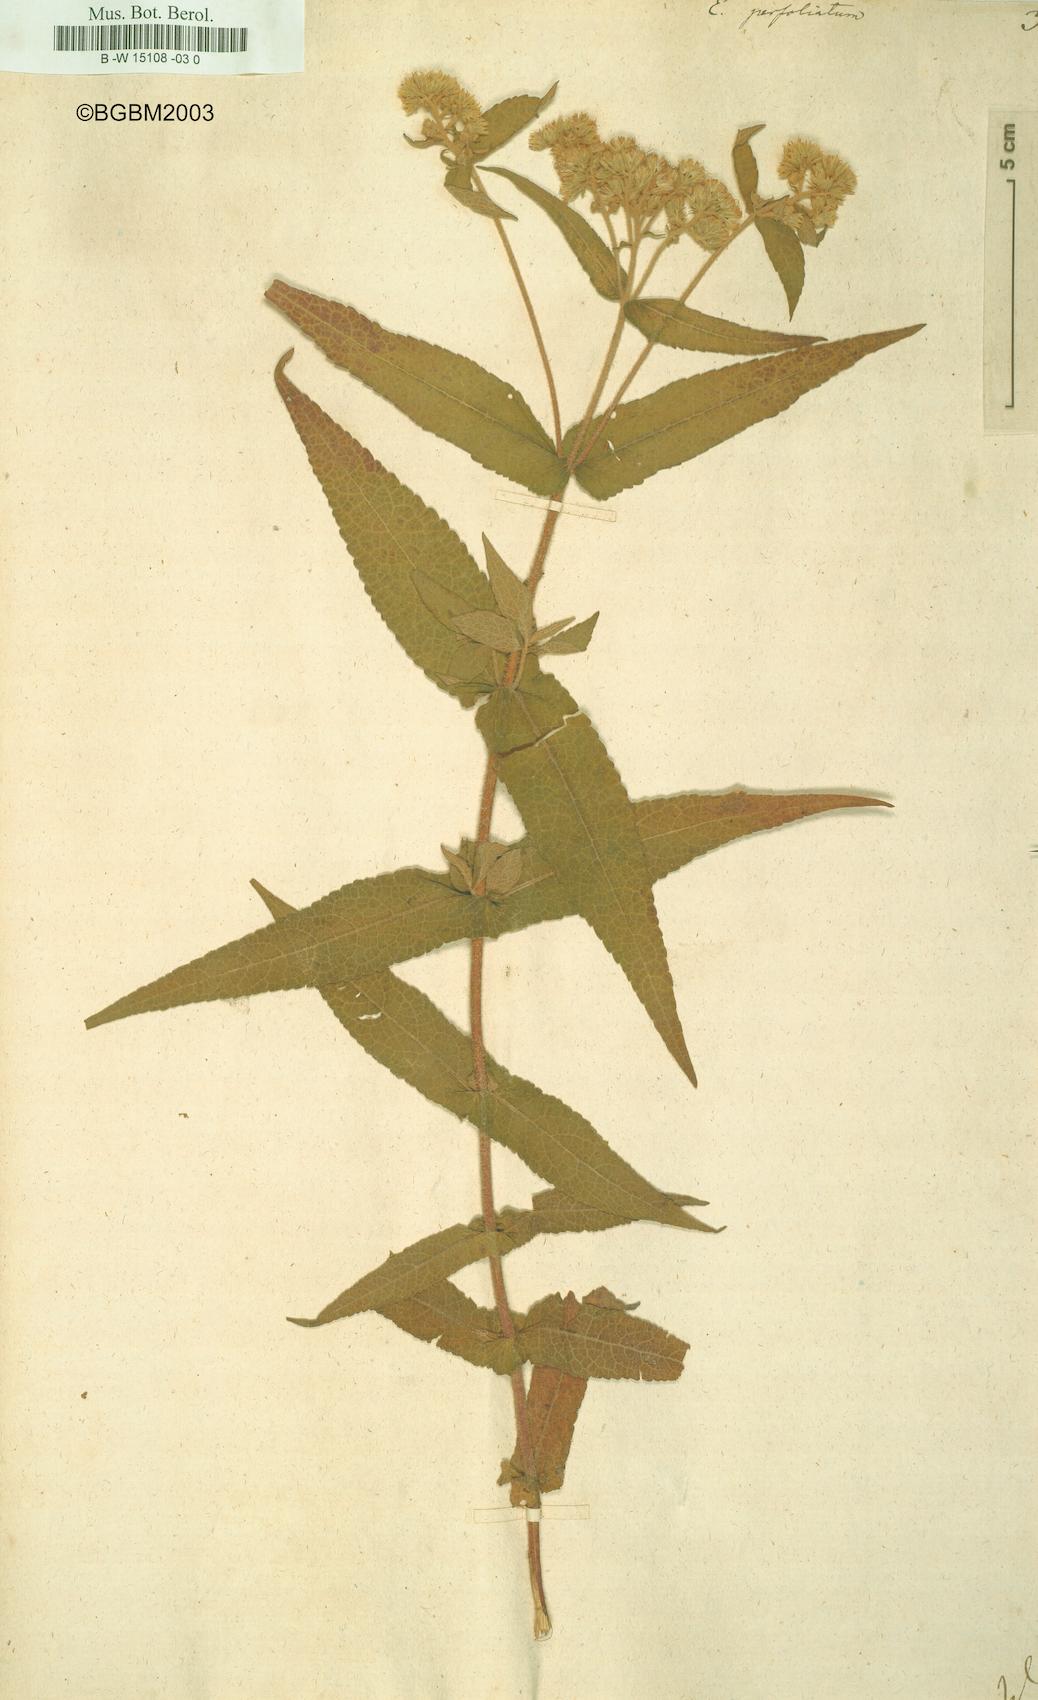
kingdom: Plantae
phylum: Tracheophyta
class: Magnoliopsida
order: Asterales
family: Asteraceae
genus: Eupatorium
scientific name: Eupatorium perfoliatum
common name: Boneset
